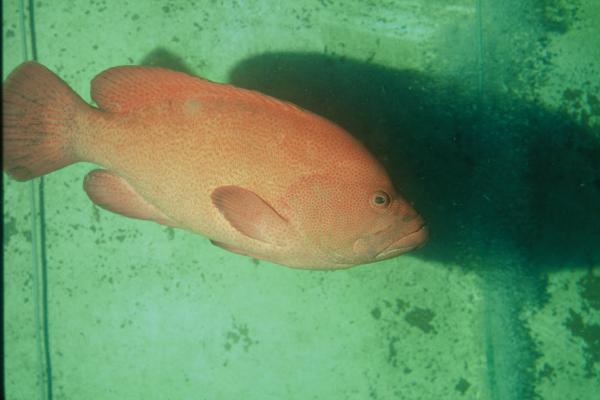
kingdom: Animalia
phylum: Chordata
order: Perciformes
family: Serranidae
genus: Cephalopholis
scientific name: Cephalopholis sonnerati
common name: Tomato hind
